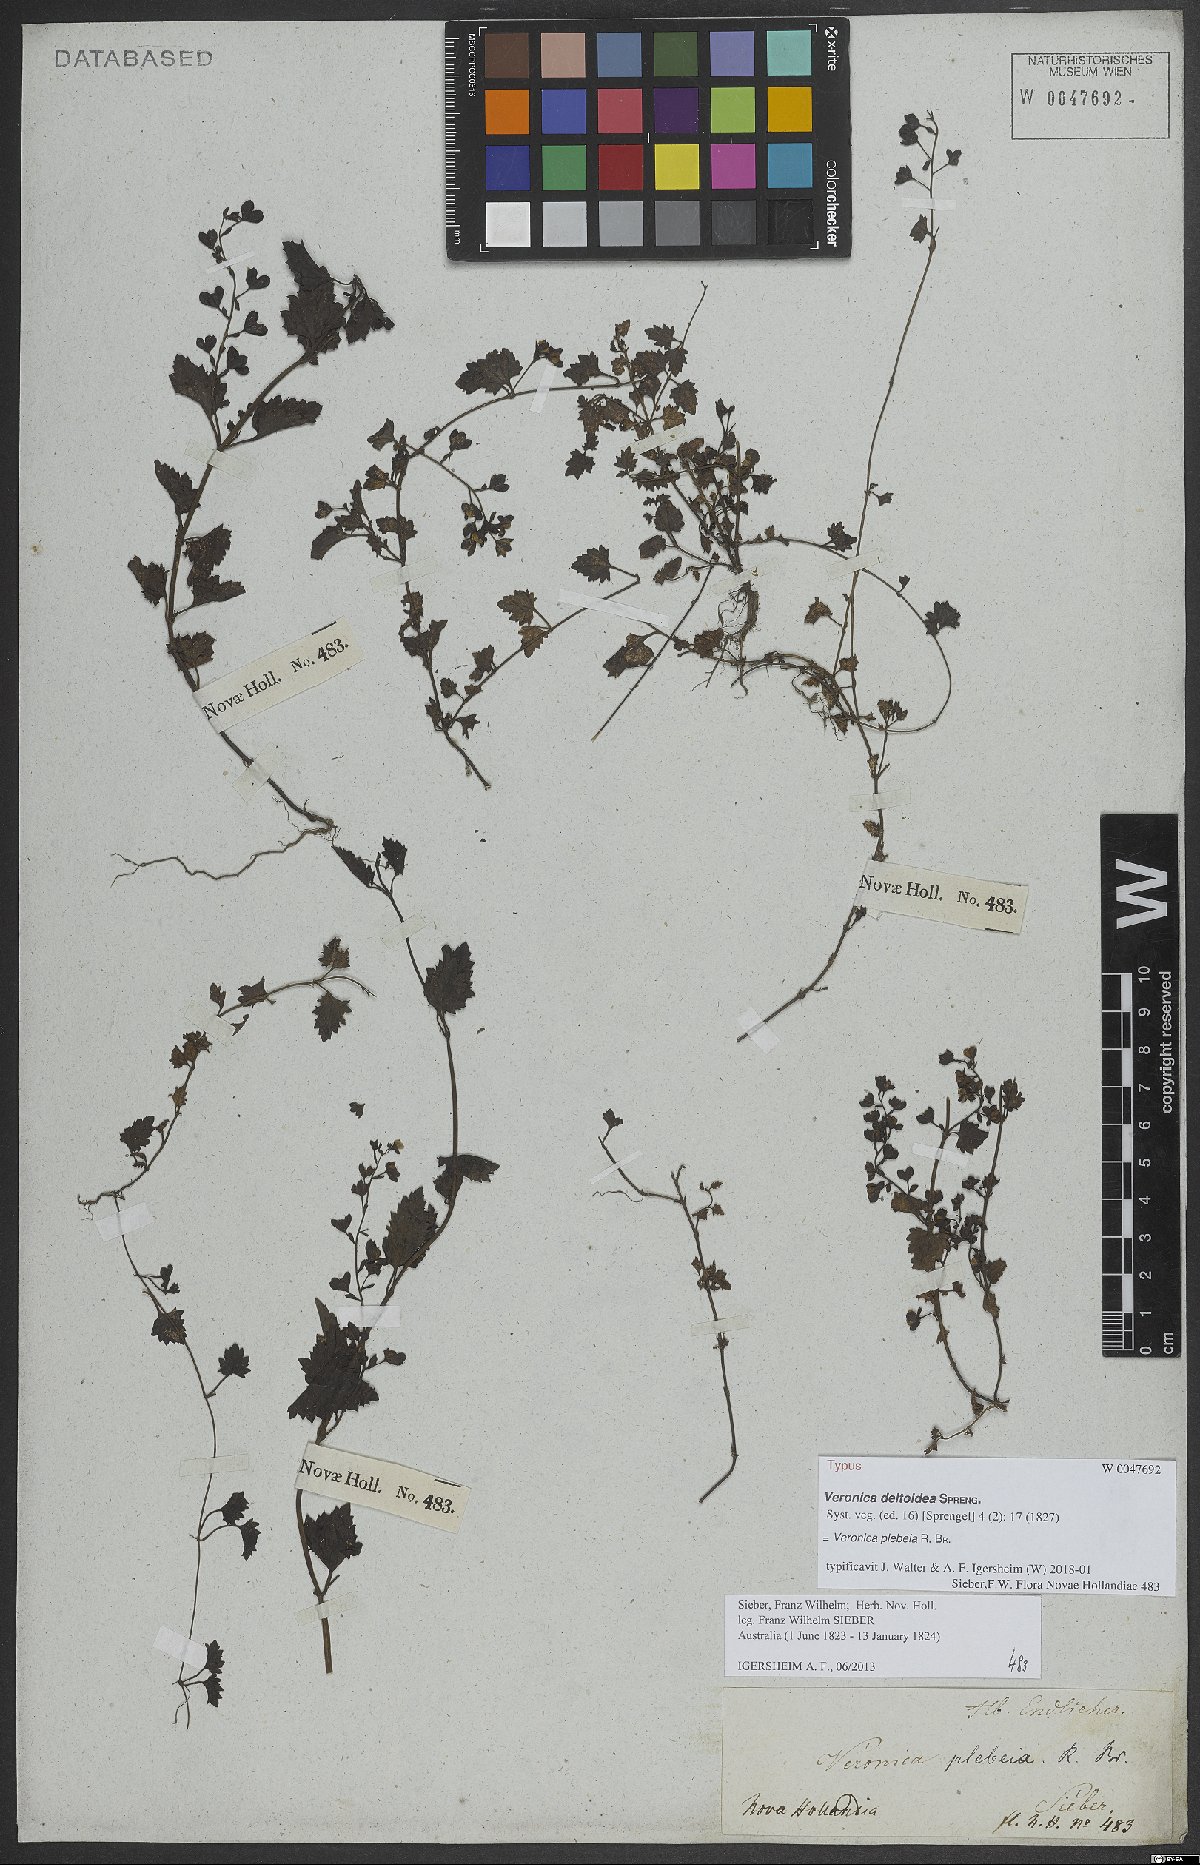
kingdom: Plantae
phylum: Tracheophyta
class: Magnoliopsida
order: Lamiales
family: Plantaginaceae
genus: Veronica
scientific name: Veronica plebeia
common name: Speedwell
